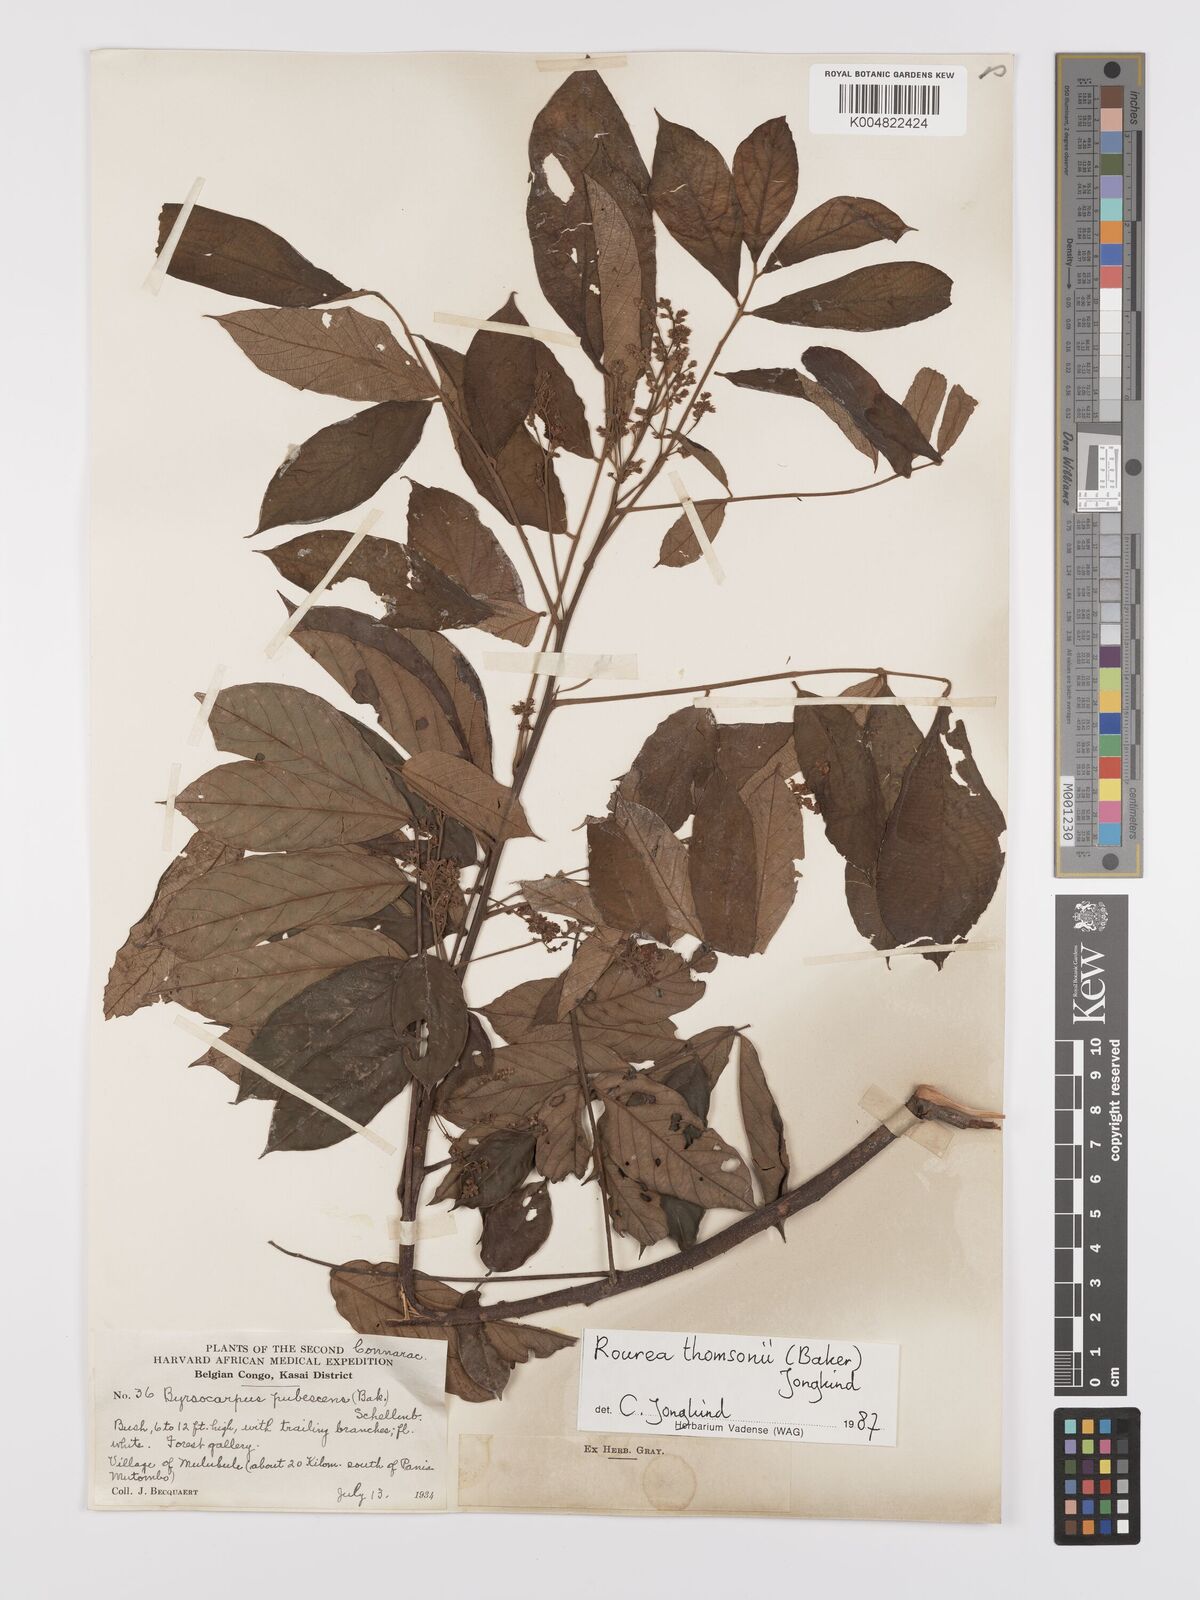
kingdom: Plantae
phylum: Tracheophyta
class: Magnoliopsida
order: Oxalidales
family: Connaraceae
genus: Rourea
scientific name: Rourea pubescens
